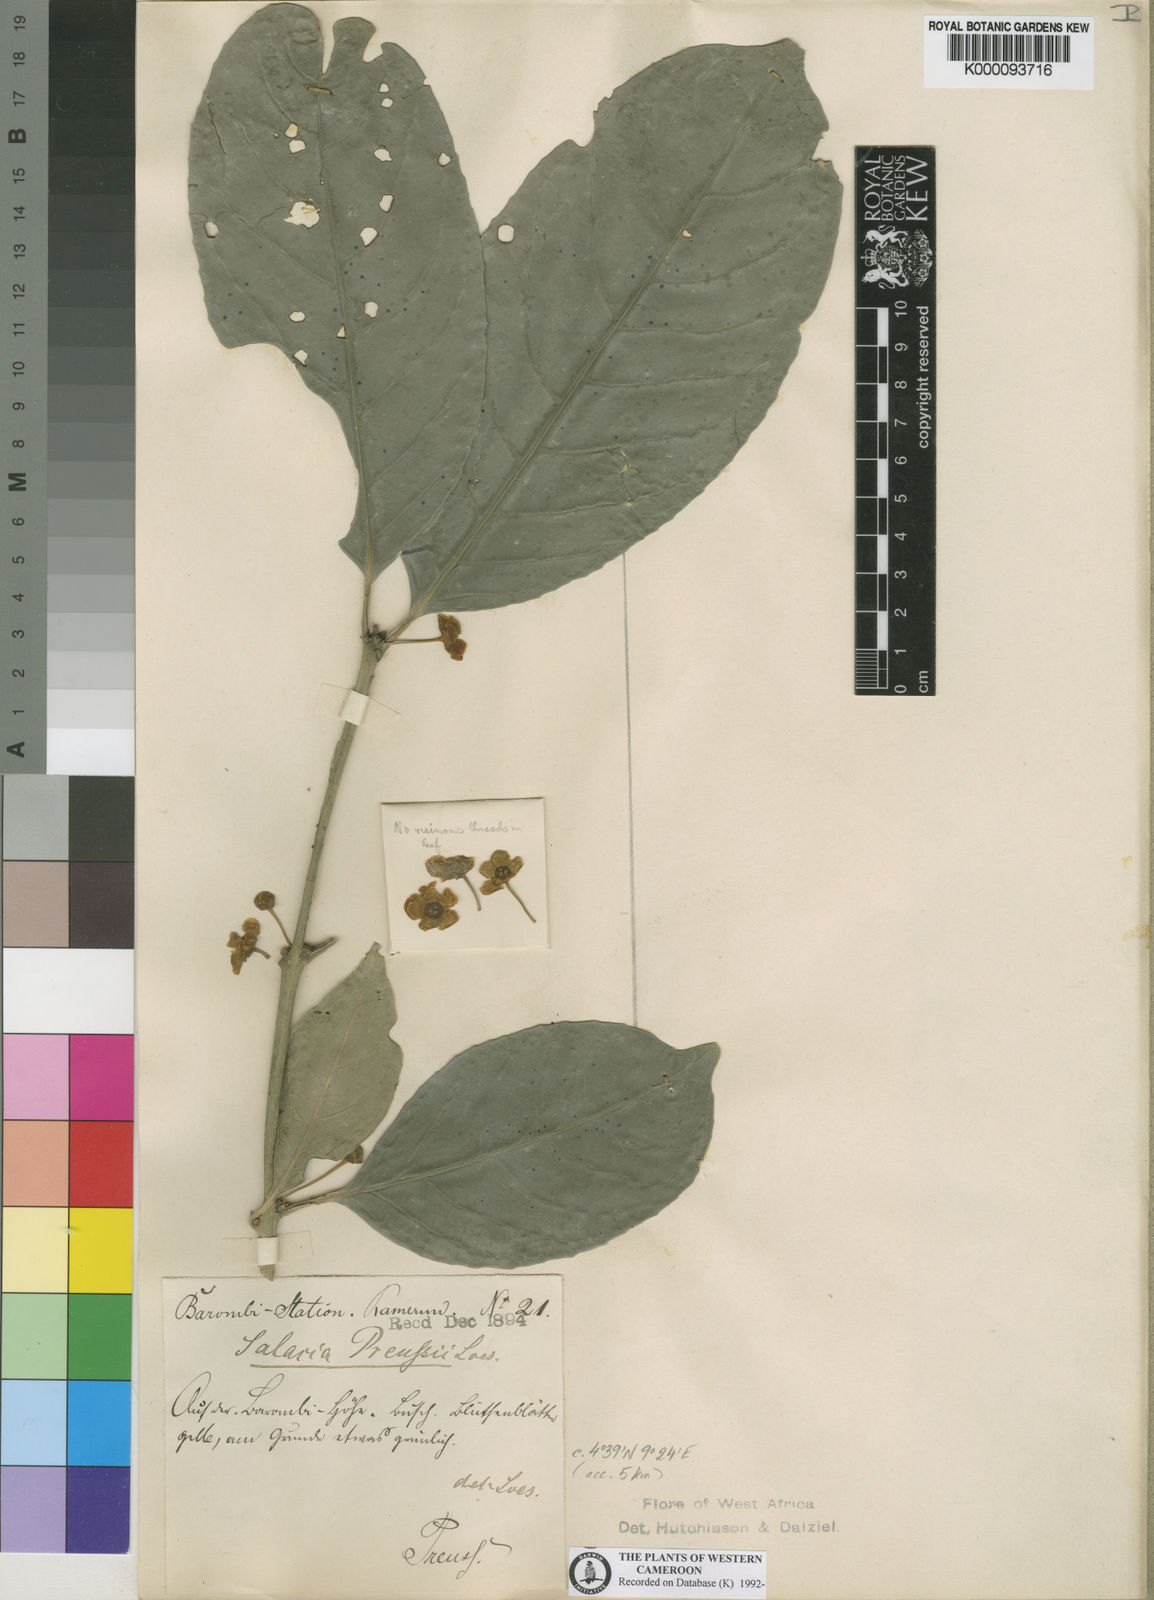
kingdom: Plantae
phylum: Tracheophyta
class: Magnoliopsida
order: Celastrales
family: Celastraceae
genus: Salacia
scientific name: Salacia preussii
